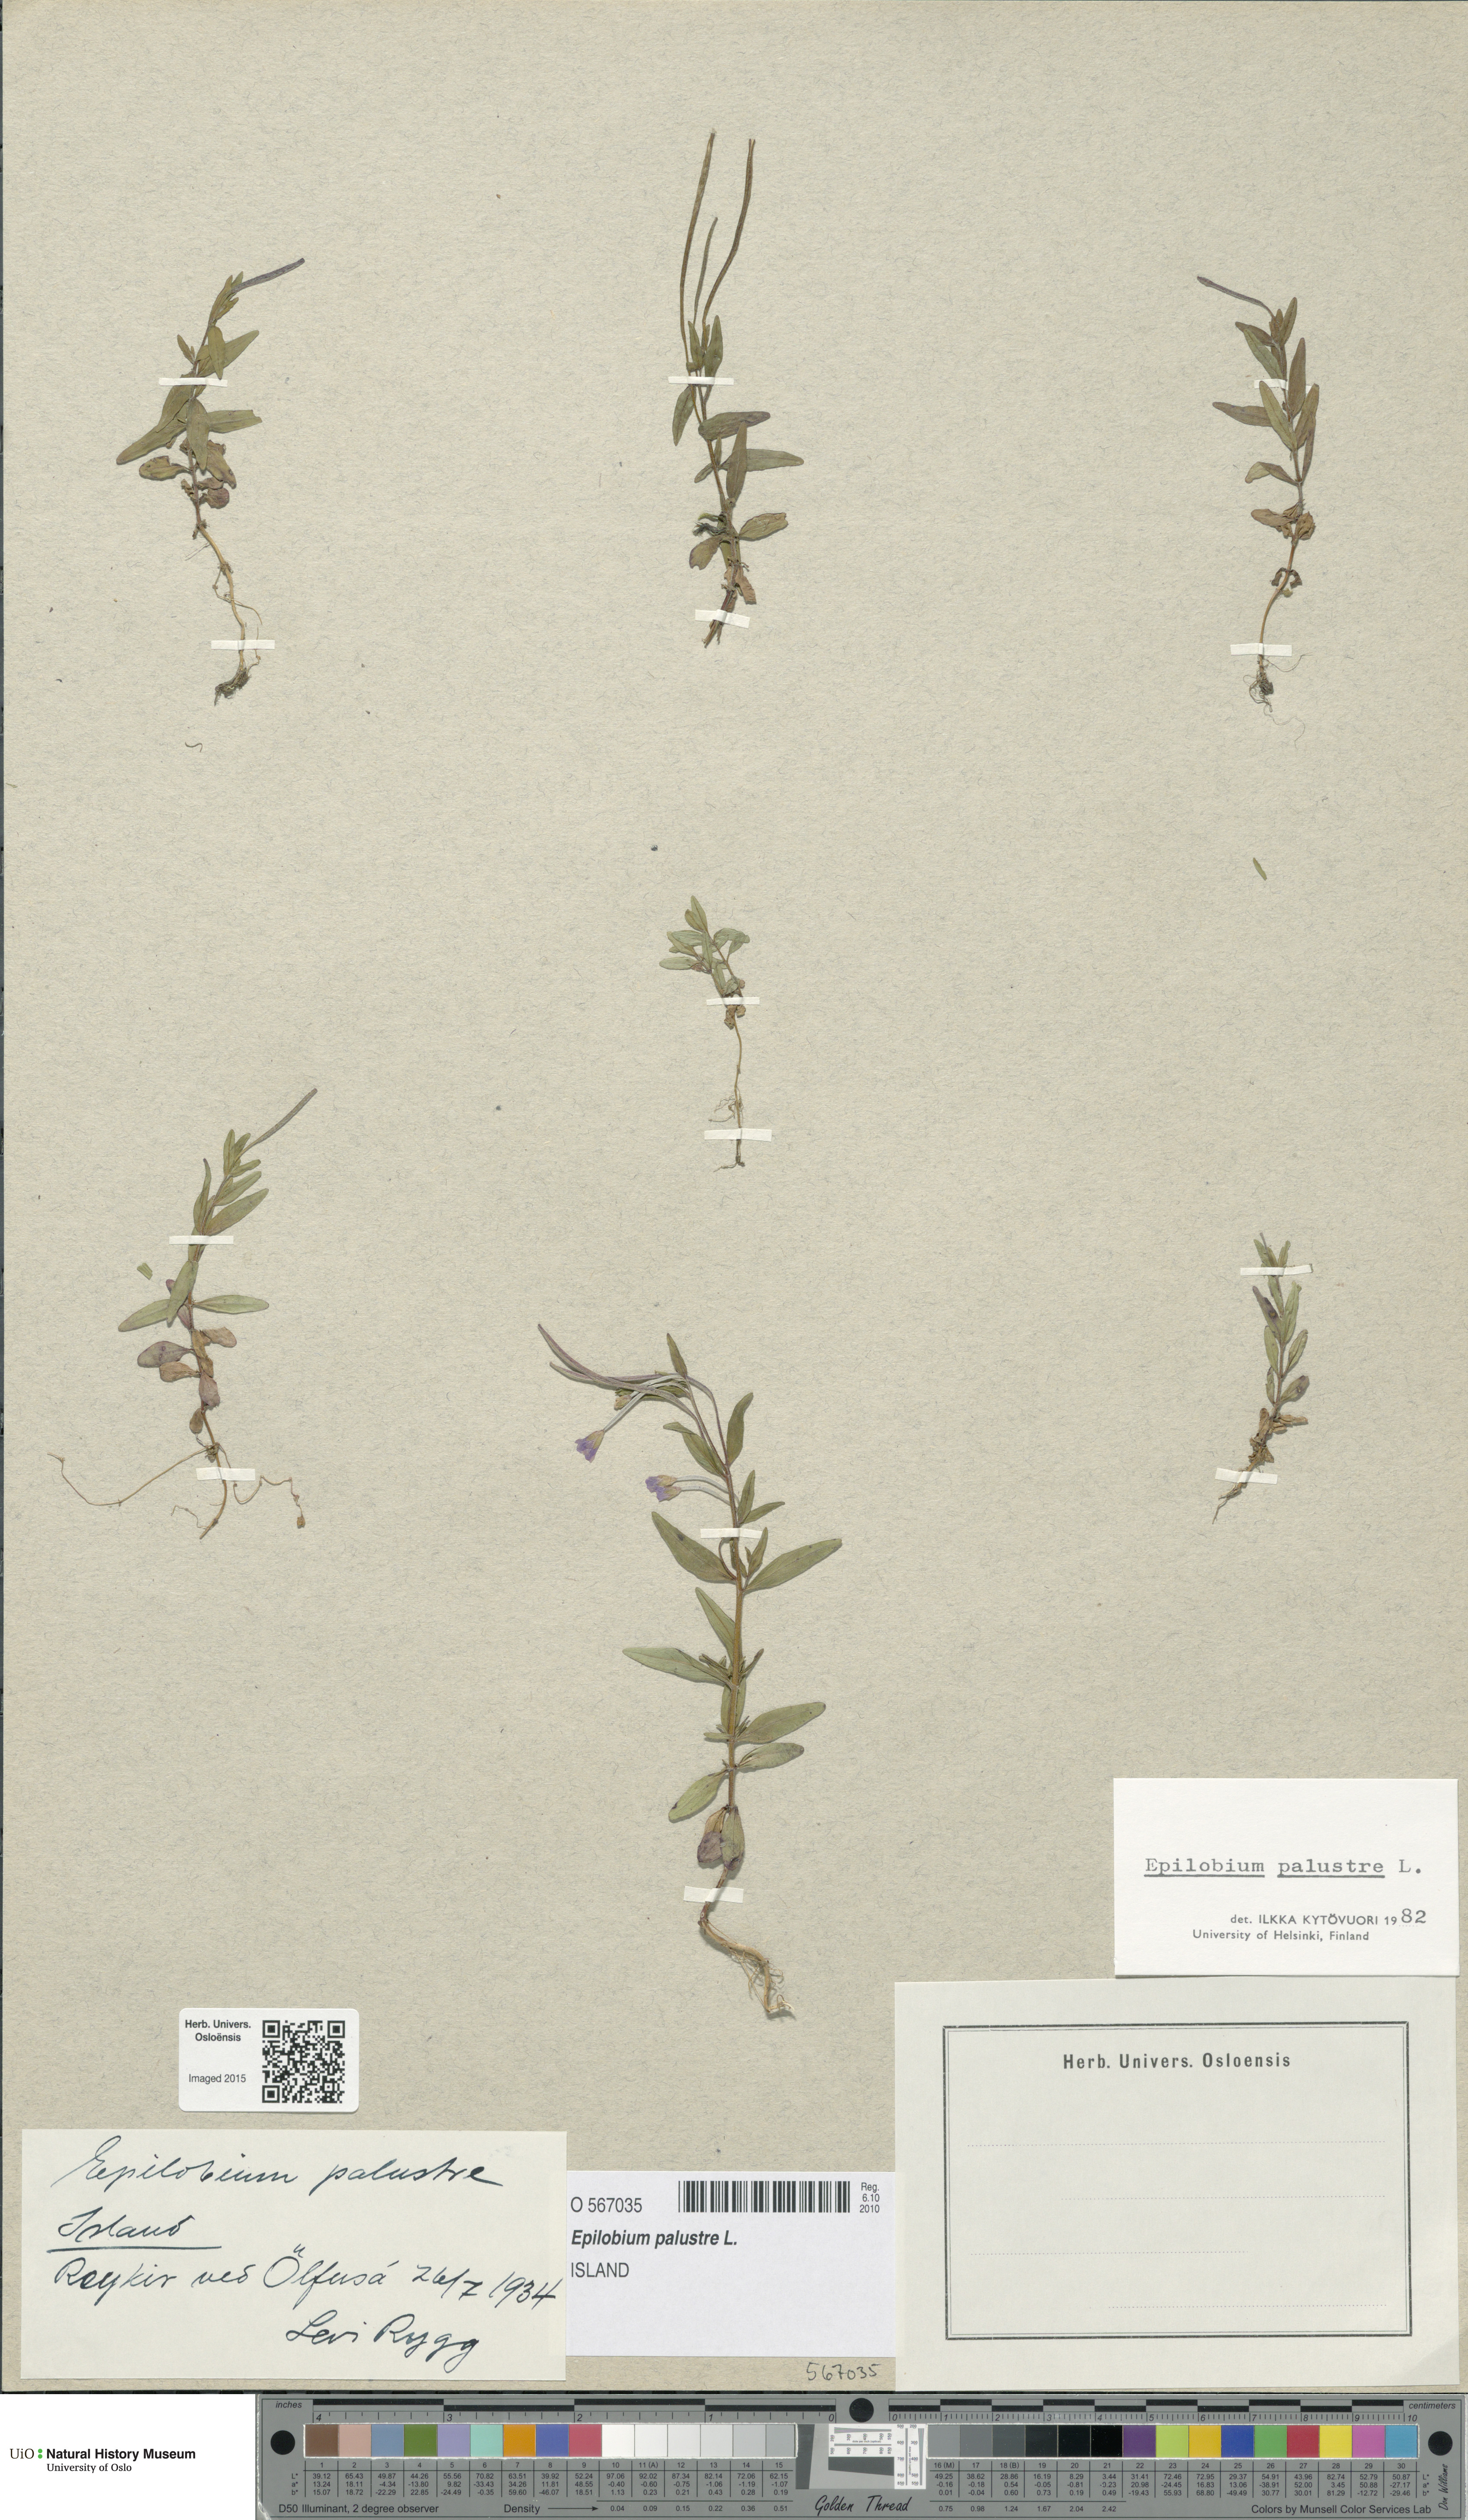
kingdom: Plantae
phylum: Tracheophyta
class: Magnoliopsida
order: Myrtales
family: Onagraceae
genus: Epilobium
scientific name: Epilobium palustre
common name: Marsh willowherb
